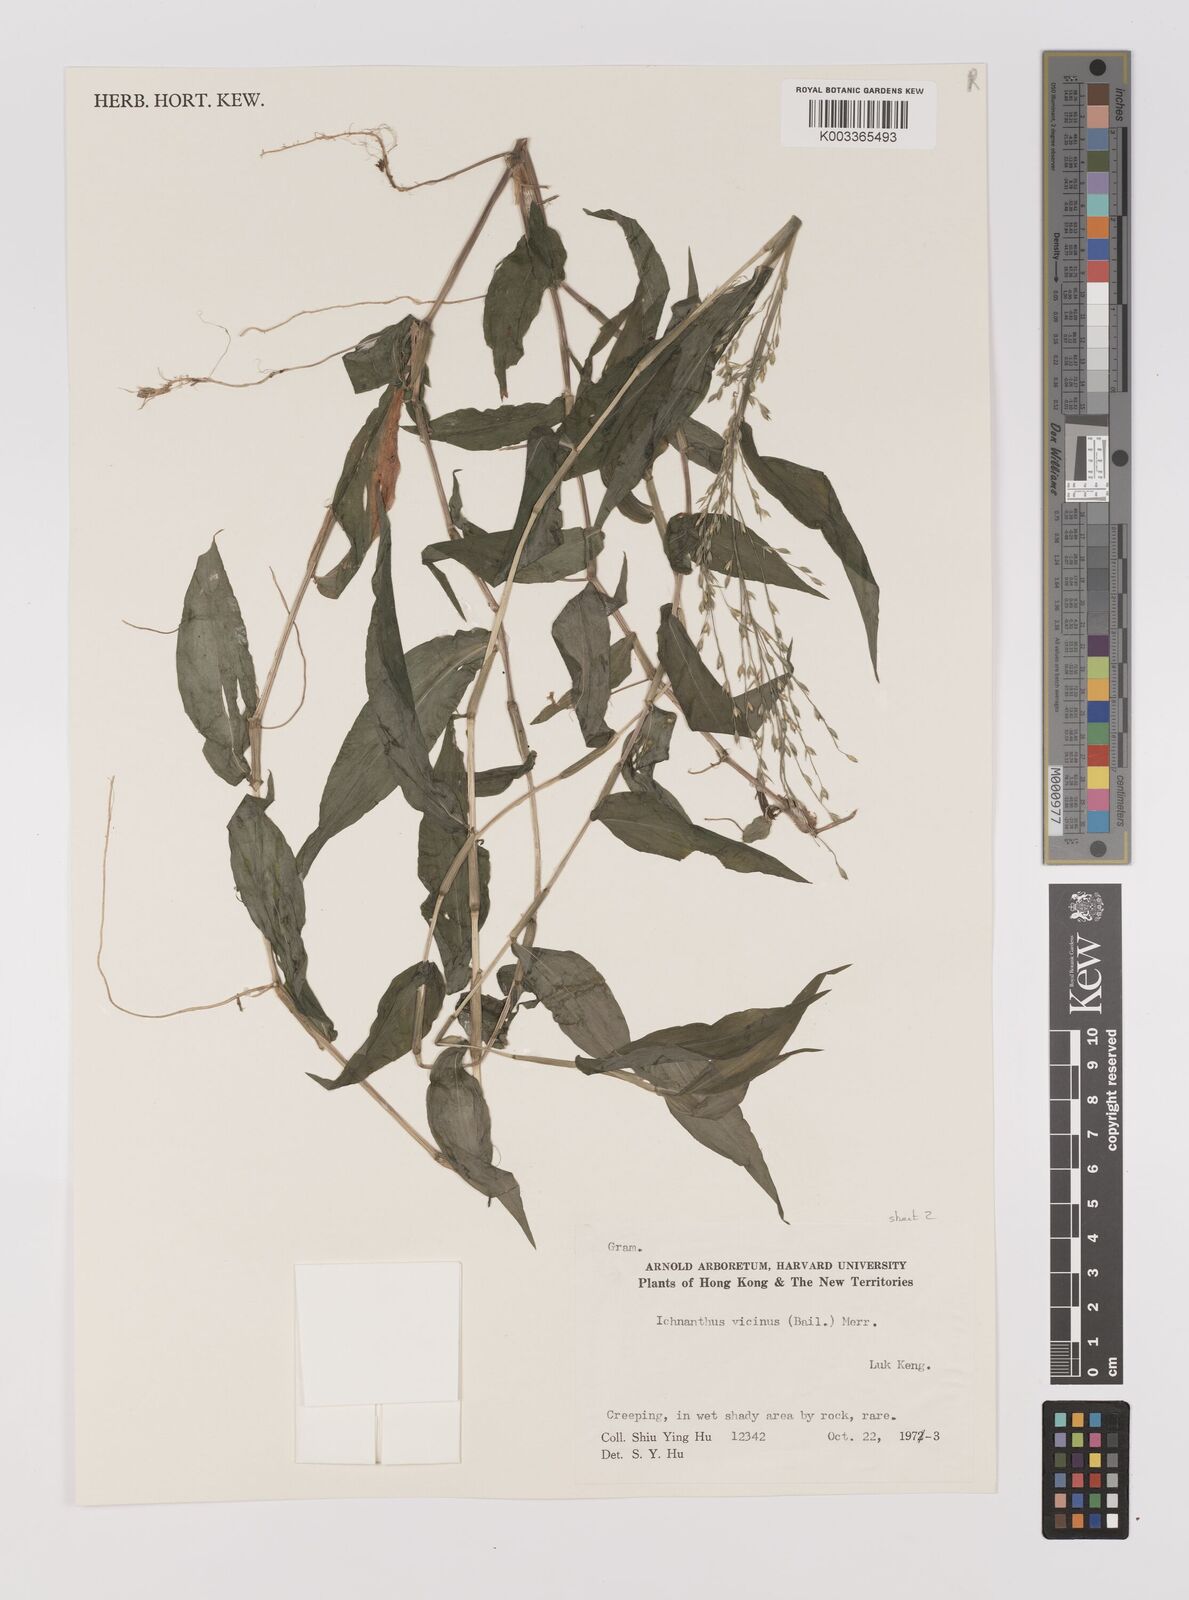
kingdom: Plantae
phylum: Tracheophyta
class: Liliopsida
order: Poales
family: Poaceae
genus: Ichnanthus
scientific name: Ichnanthus pallens
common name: Water grass
